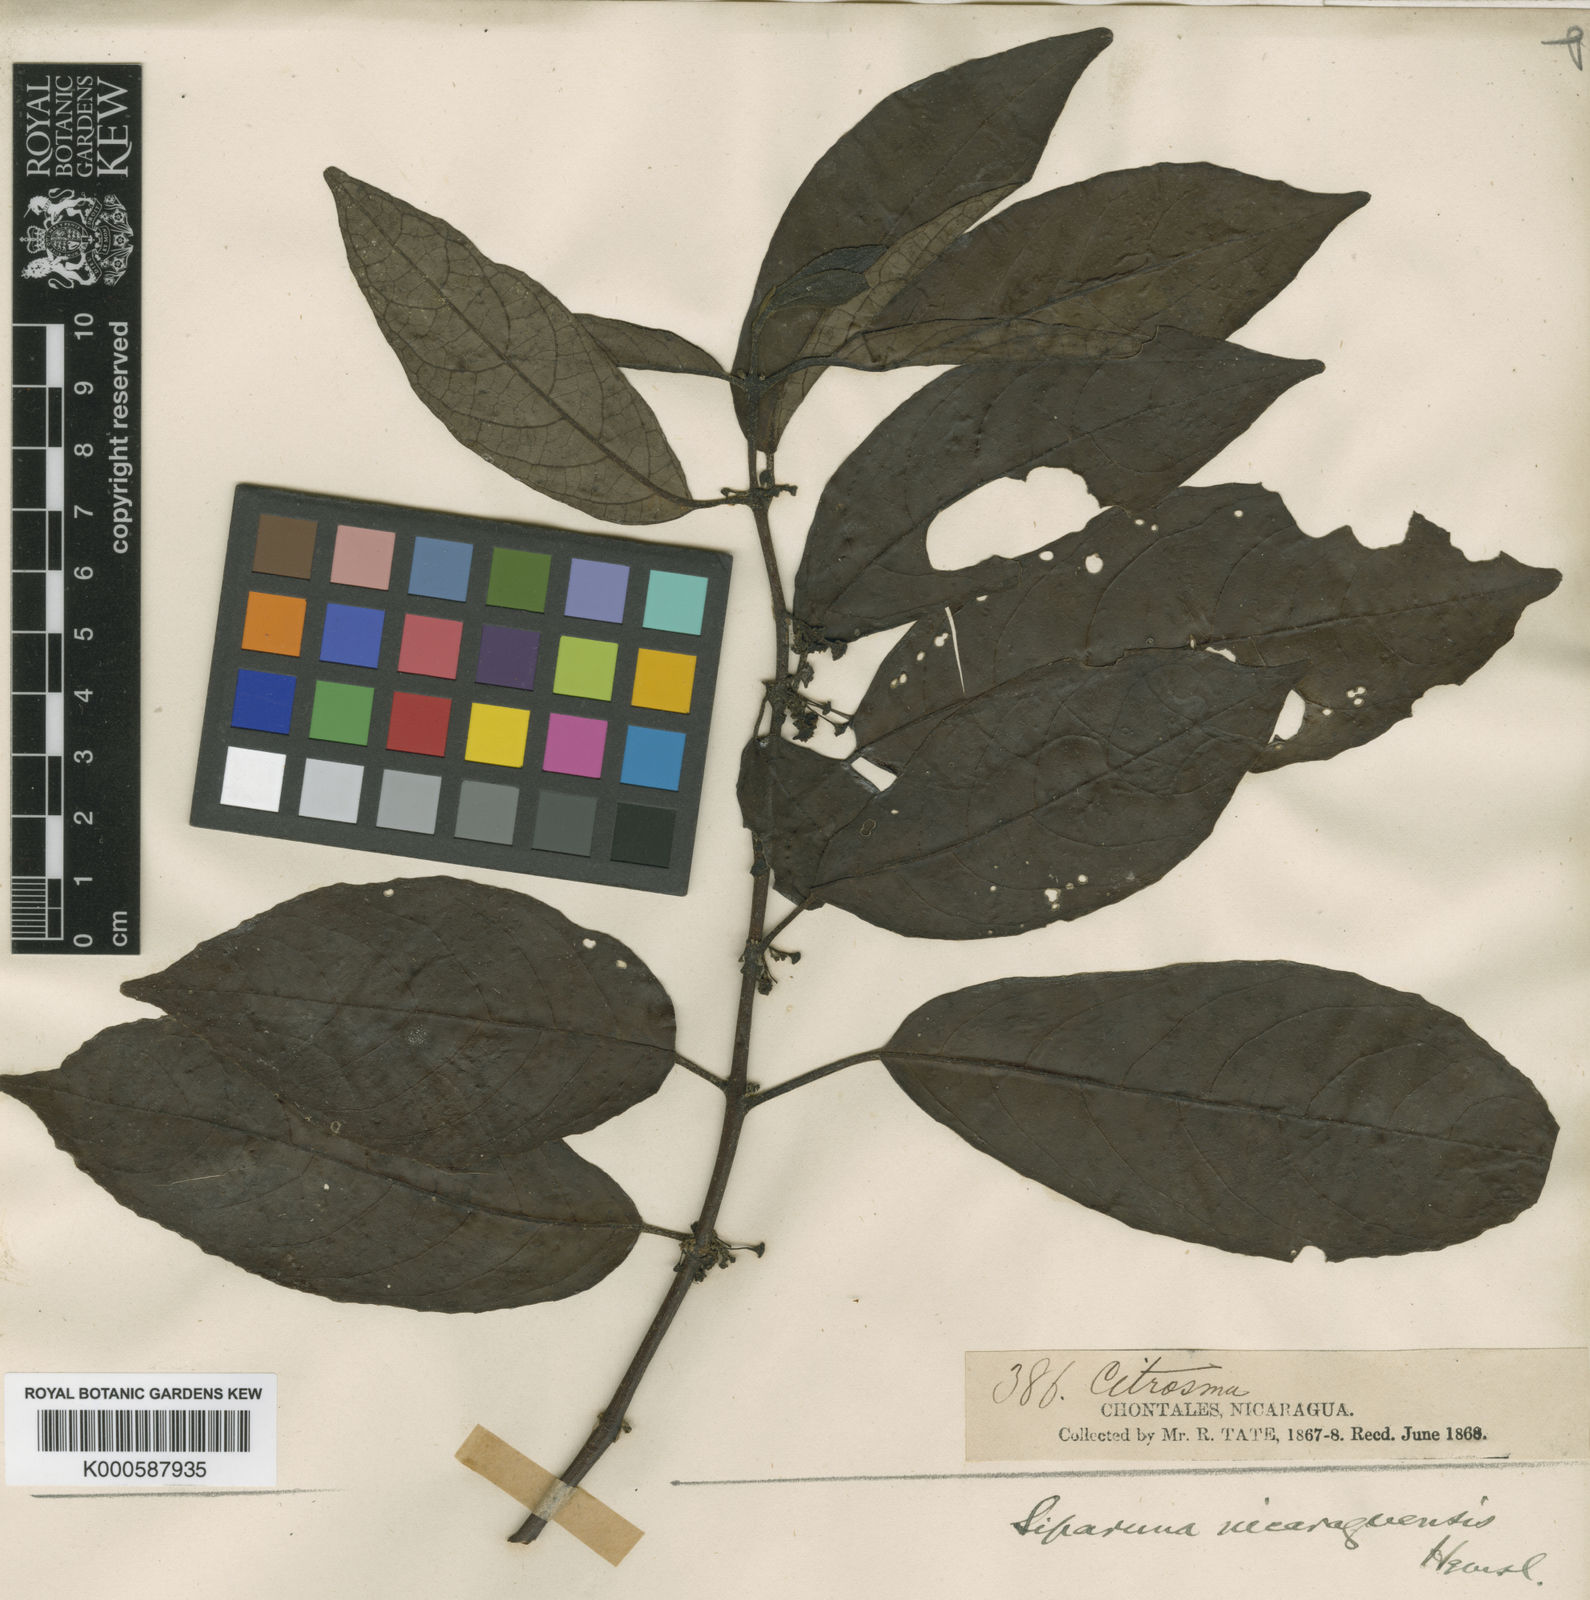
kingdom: Plantae
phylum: Tracheophyta
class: Magnoliopsida
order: Laurales
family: Siparunaceae
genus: Siparuna
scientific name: Siparuna thecaphora
